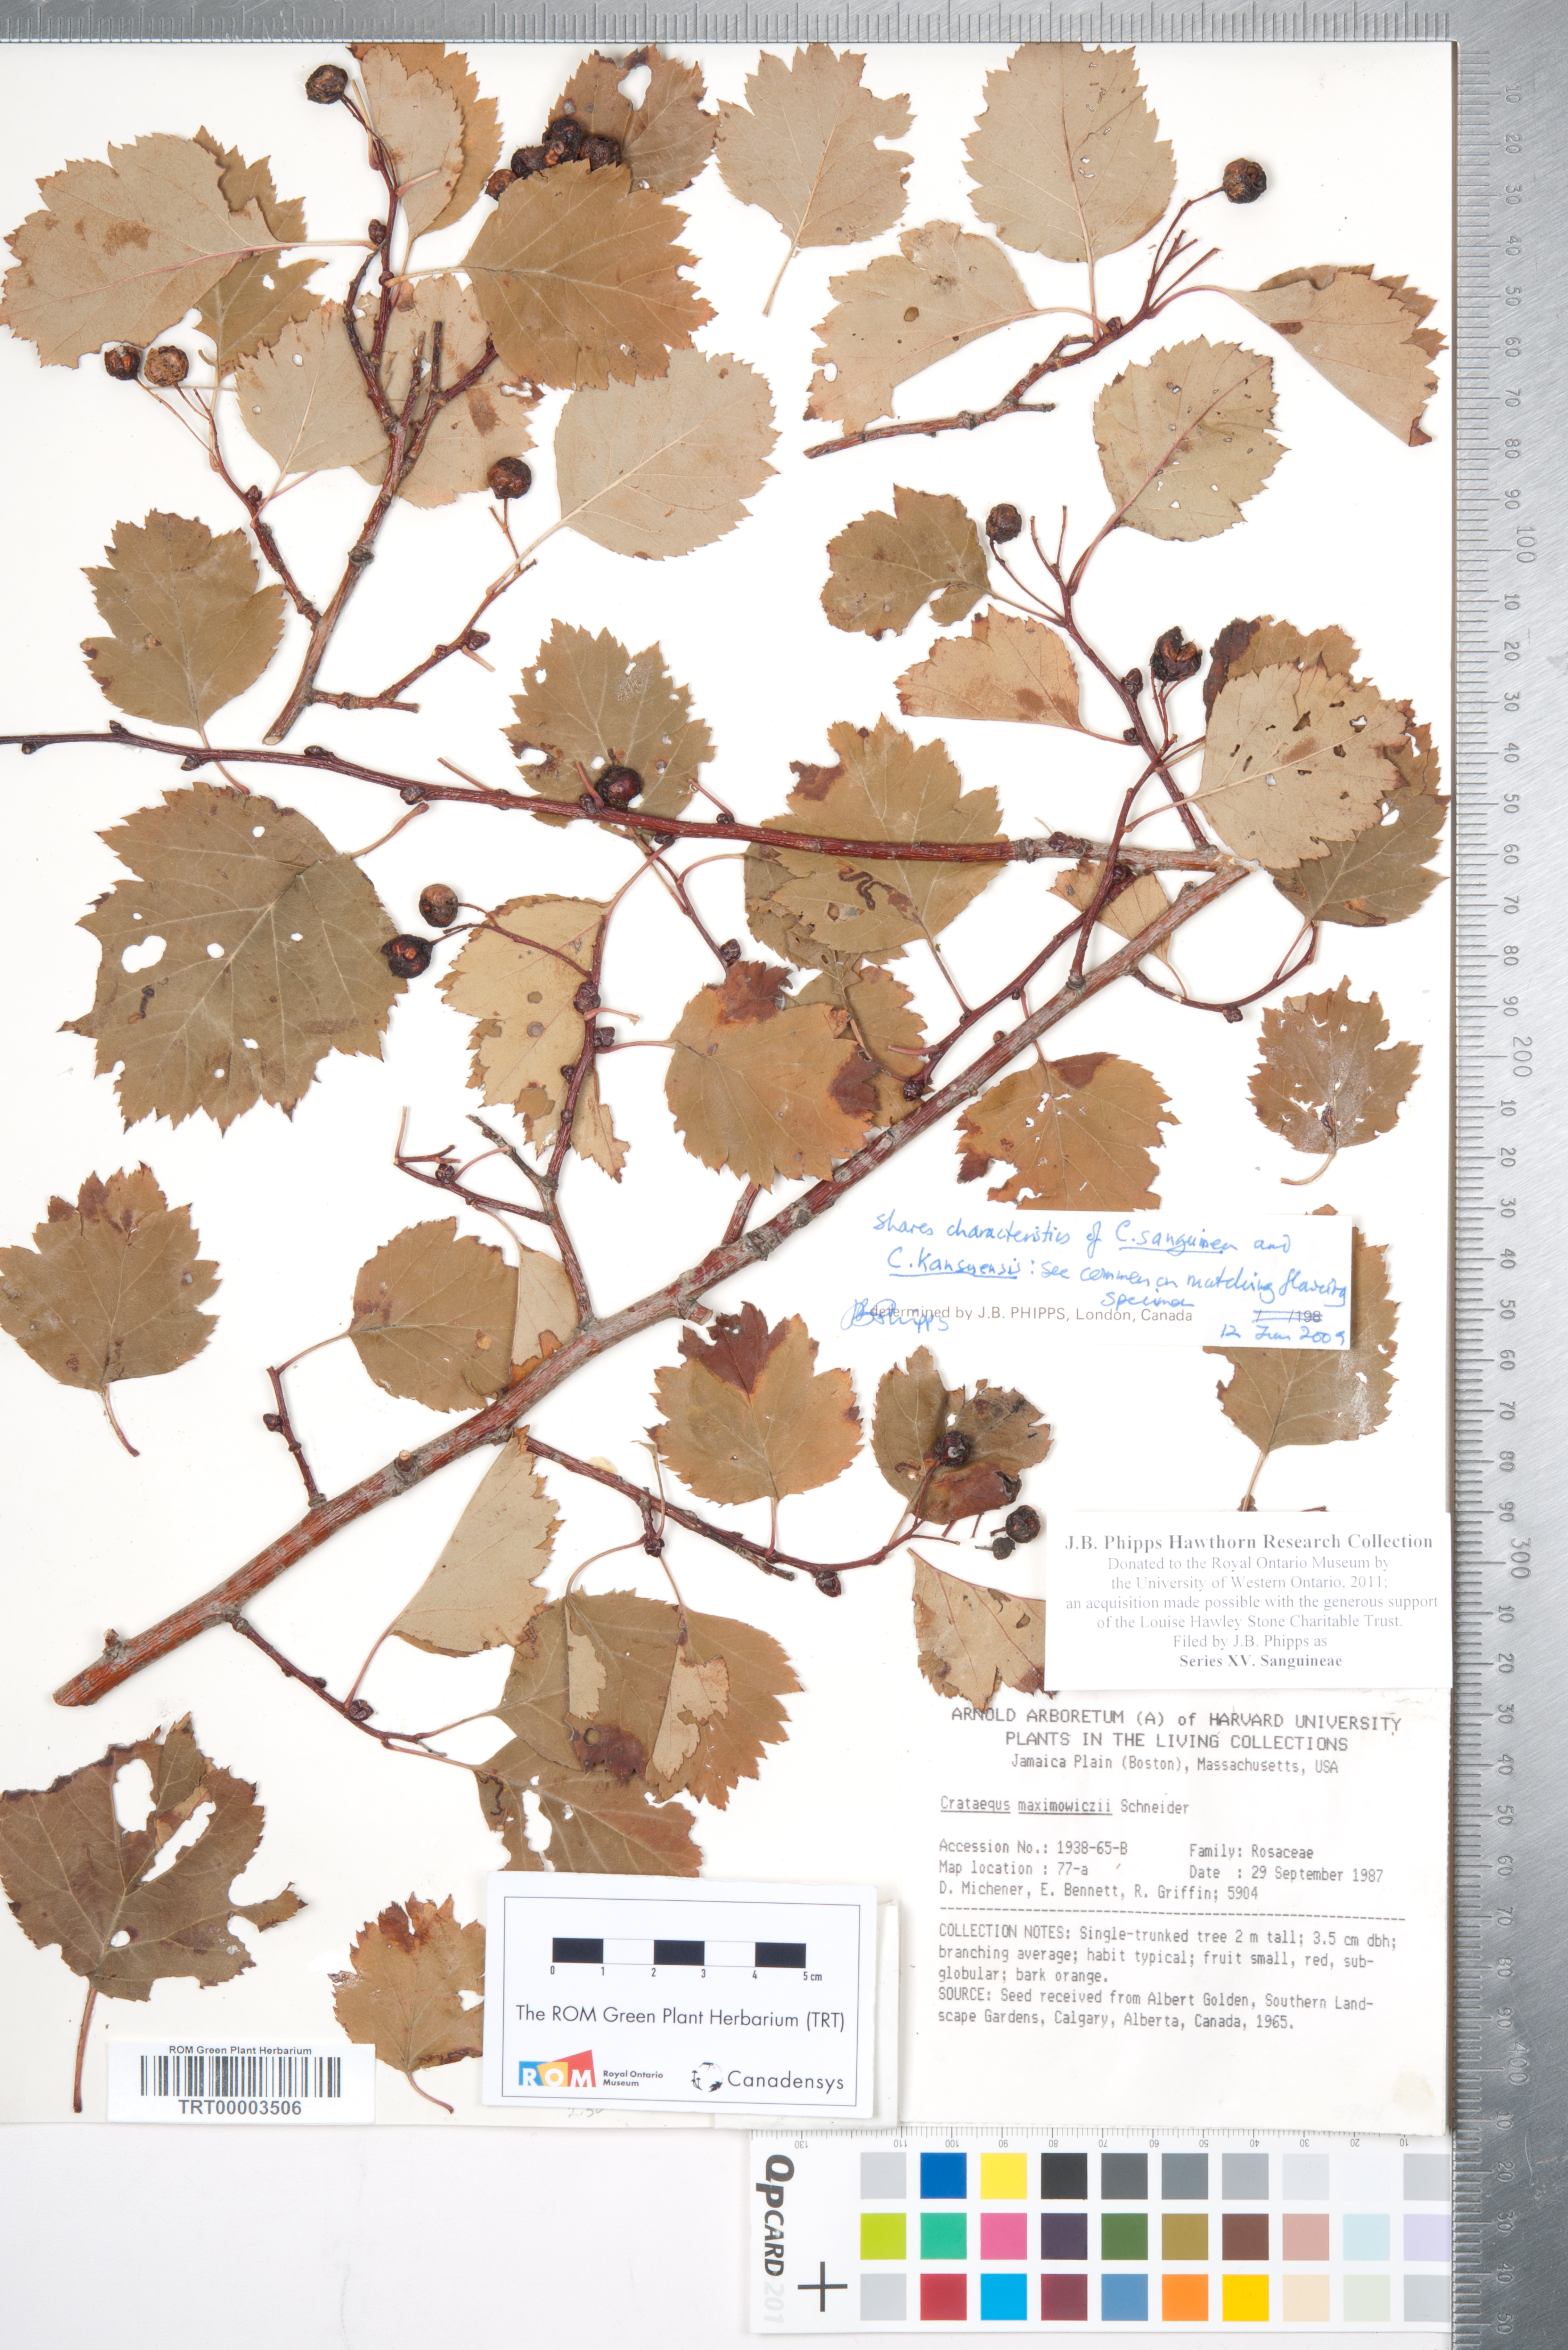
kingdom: Plantae
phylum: Tracheophyta
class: Magnoliopsida
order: Rosales
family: Rosaceae
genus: Crataegus
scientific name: Crataegus
